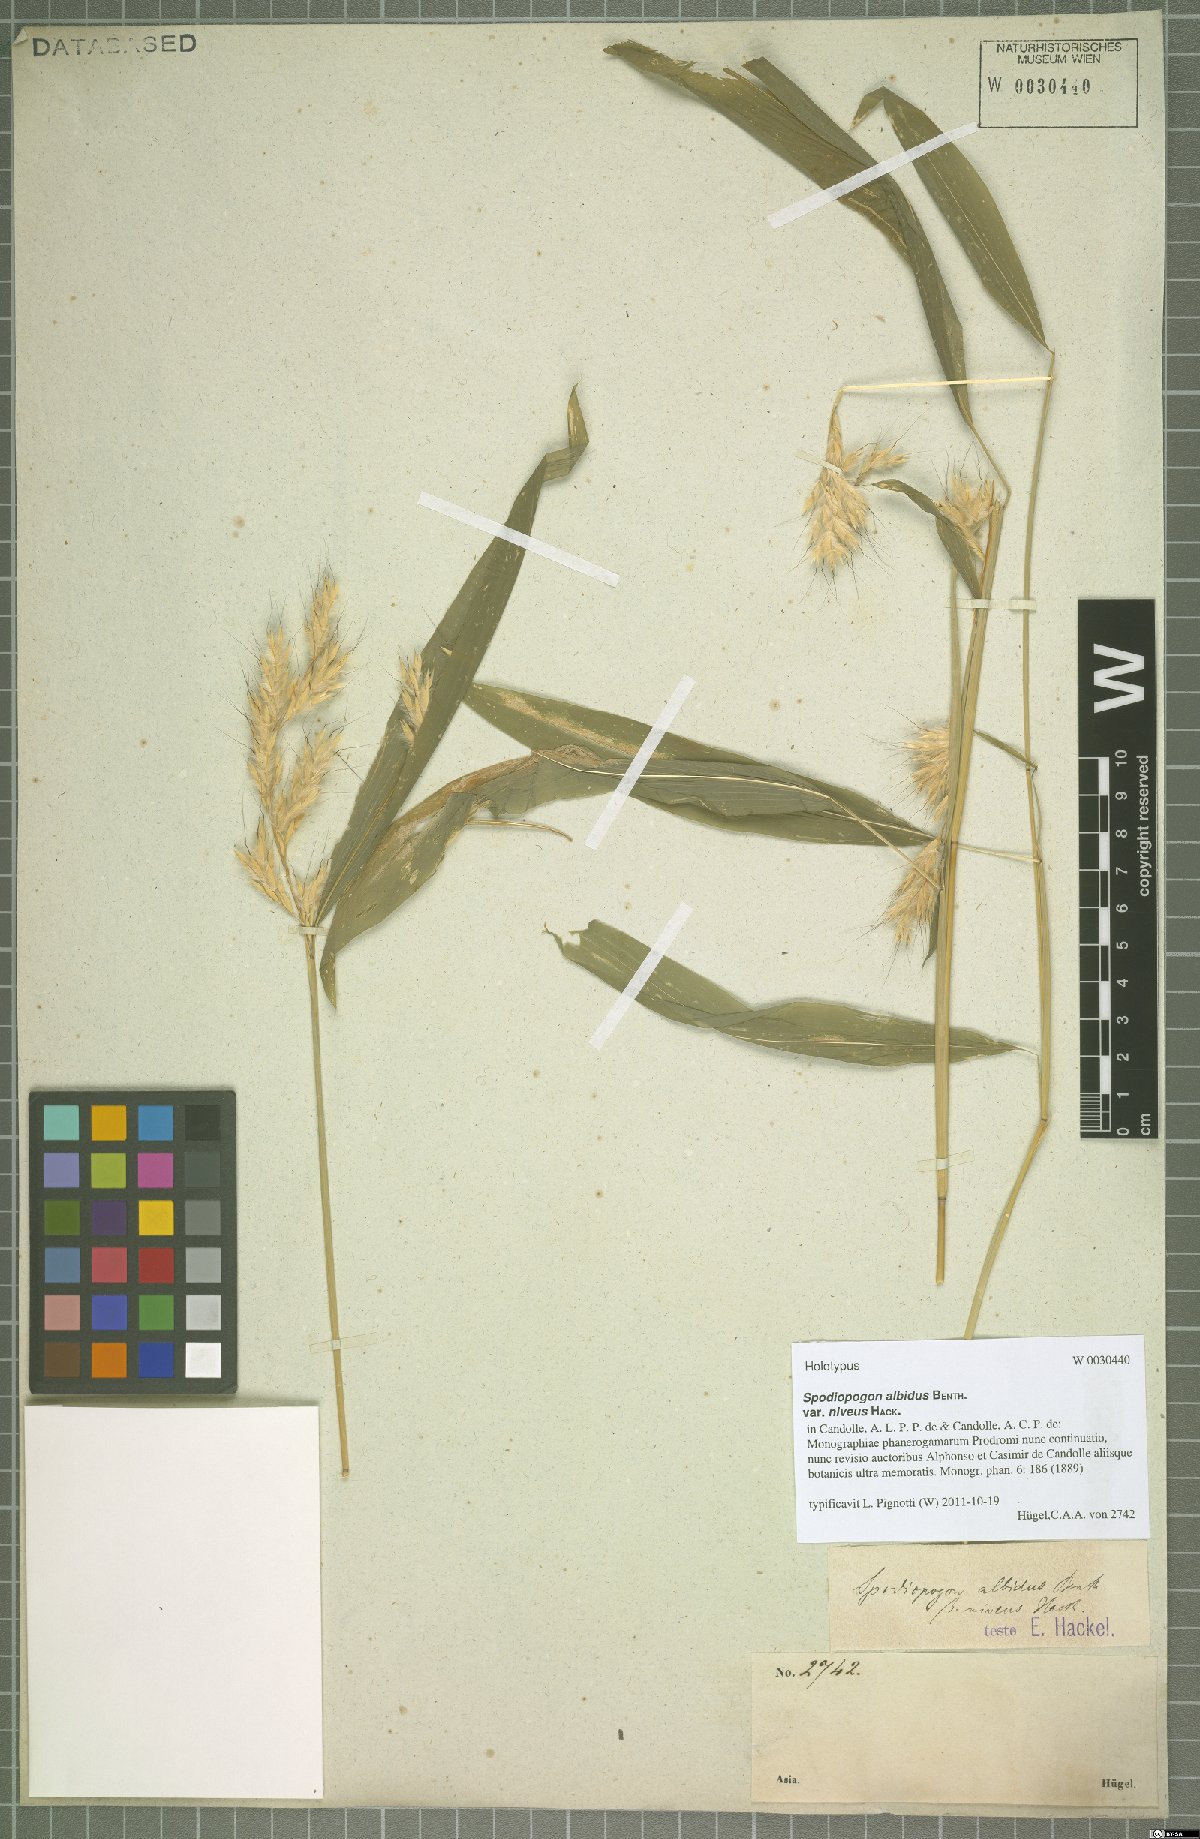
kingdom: Plantae
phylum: Tracheophyta
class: Liliopsida
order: Poales
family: Poaceae
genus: Spodiopogon
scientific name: Spodiopogon rhizophorus
